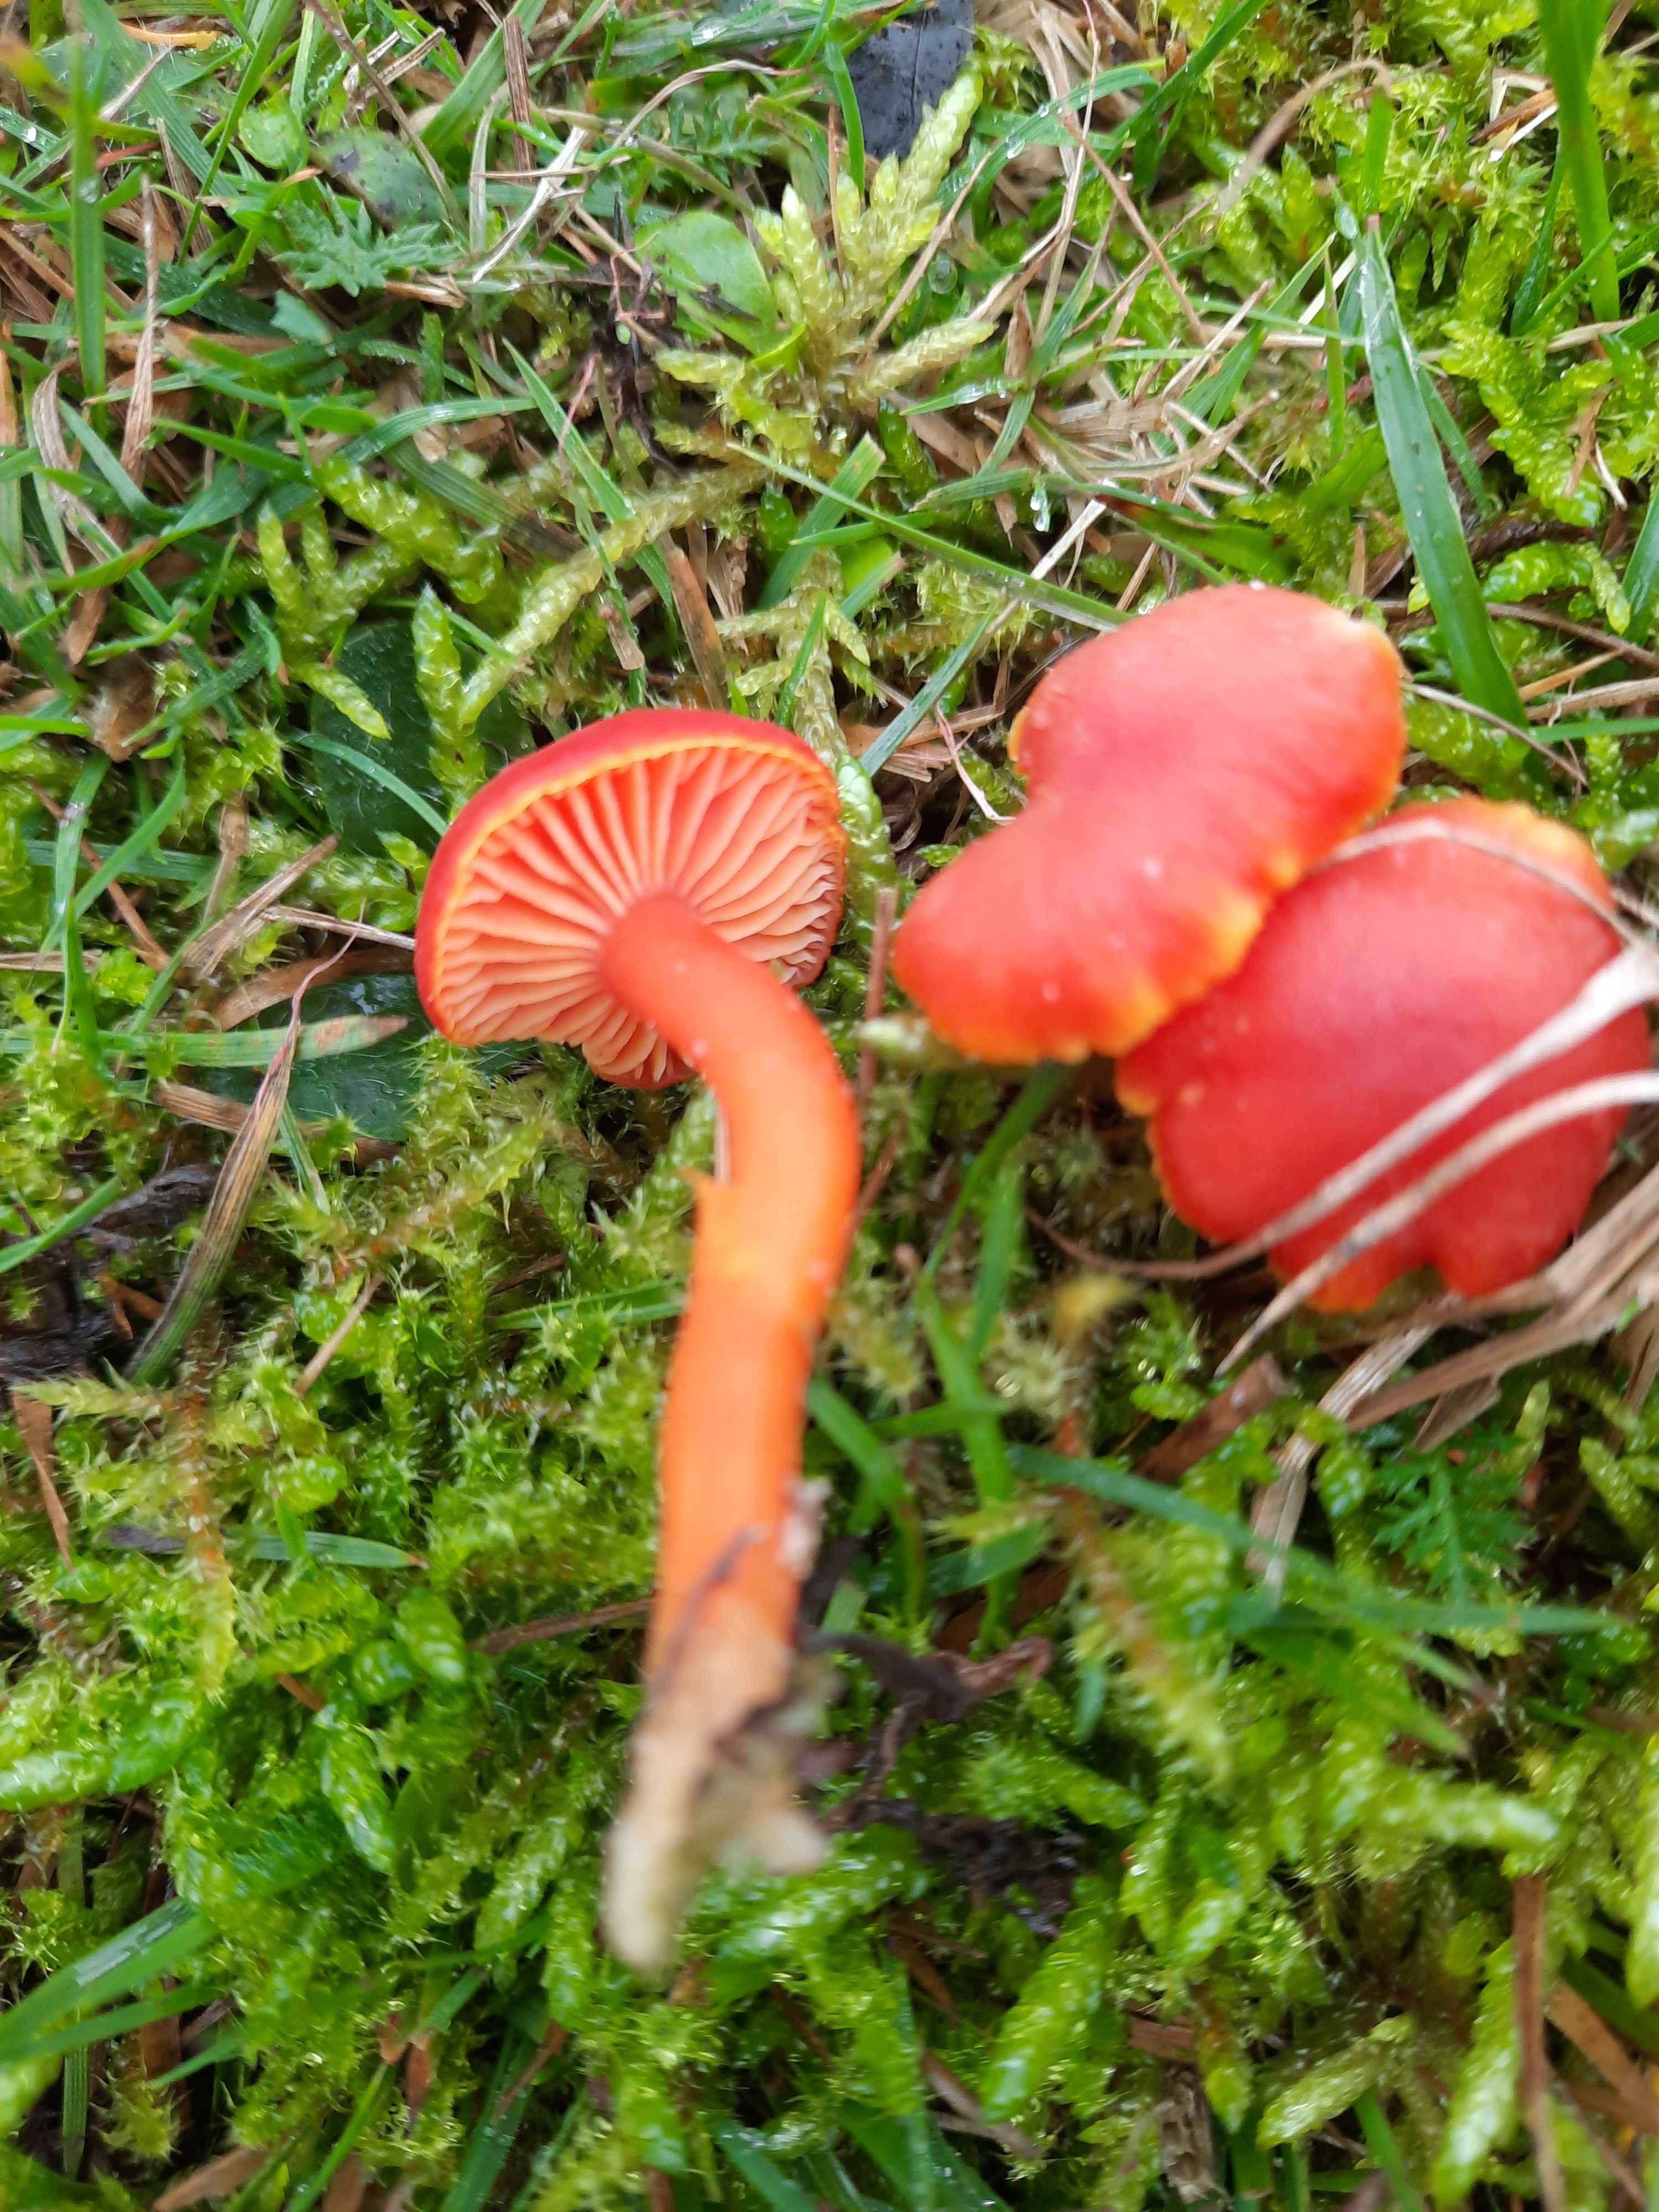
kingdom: Fungi
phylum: Basidiomycota
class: Agaricomycetes
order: Agaricales
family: Hygrophoraceae
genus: Hygrocybe
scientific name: Hygrocybe miniata
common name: mønje-vokshat
